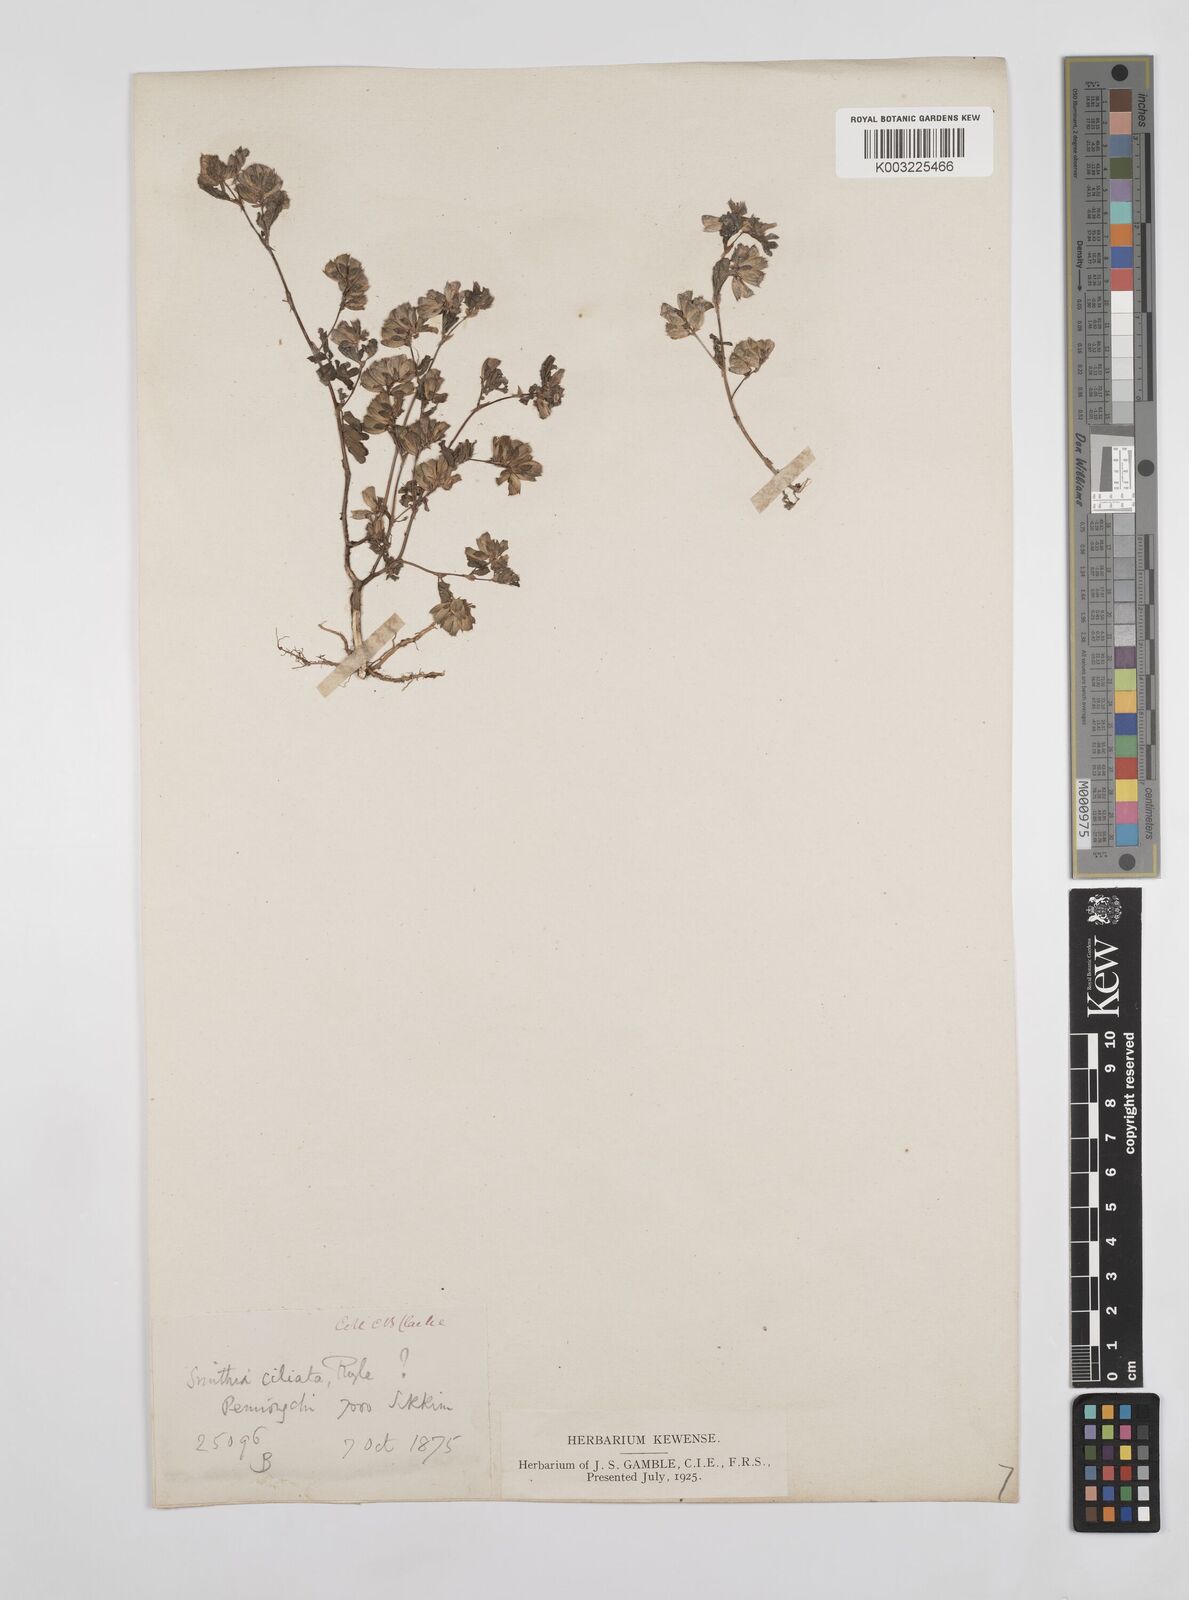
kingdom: Plantae
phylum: Tracheophyta
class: Magnoliopsida
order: Fabales
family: Fabaceae
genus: Smithia
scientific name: Smithia ciliata
